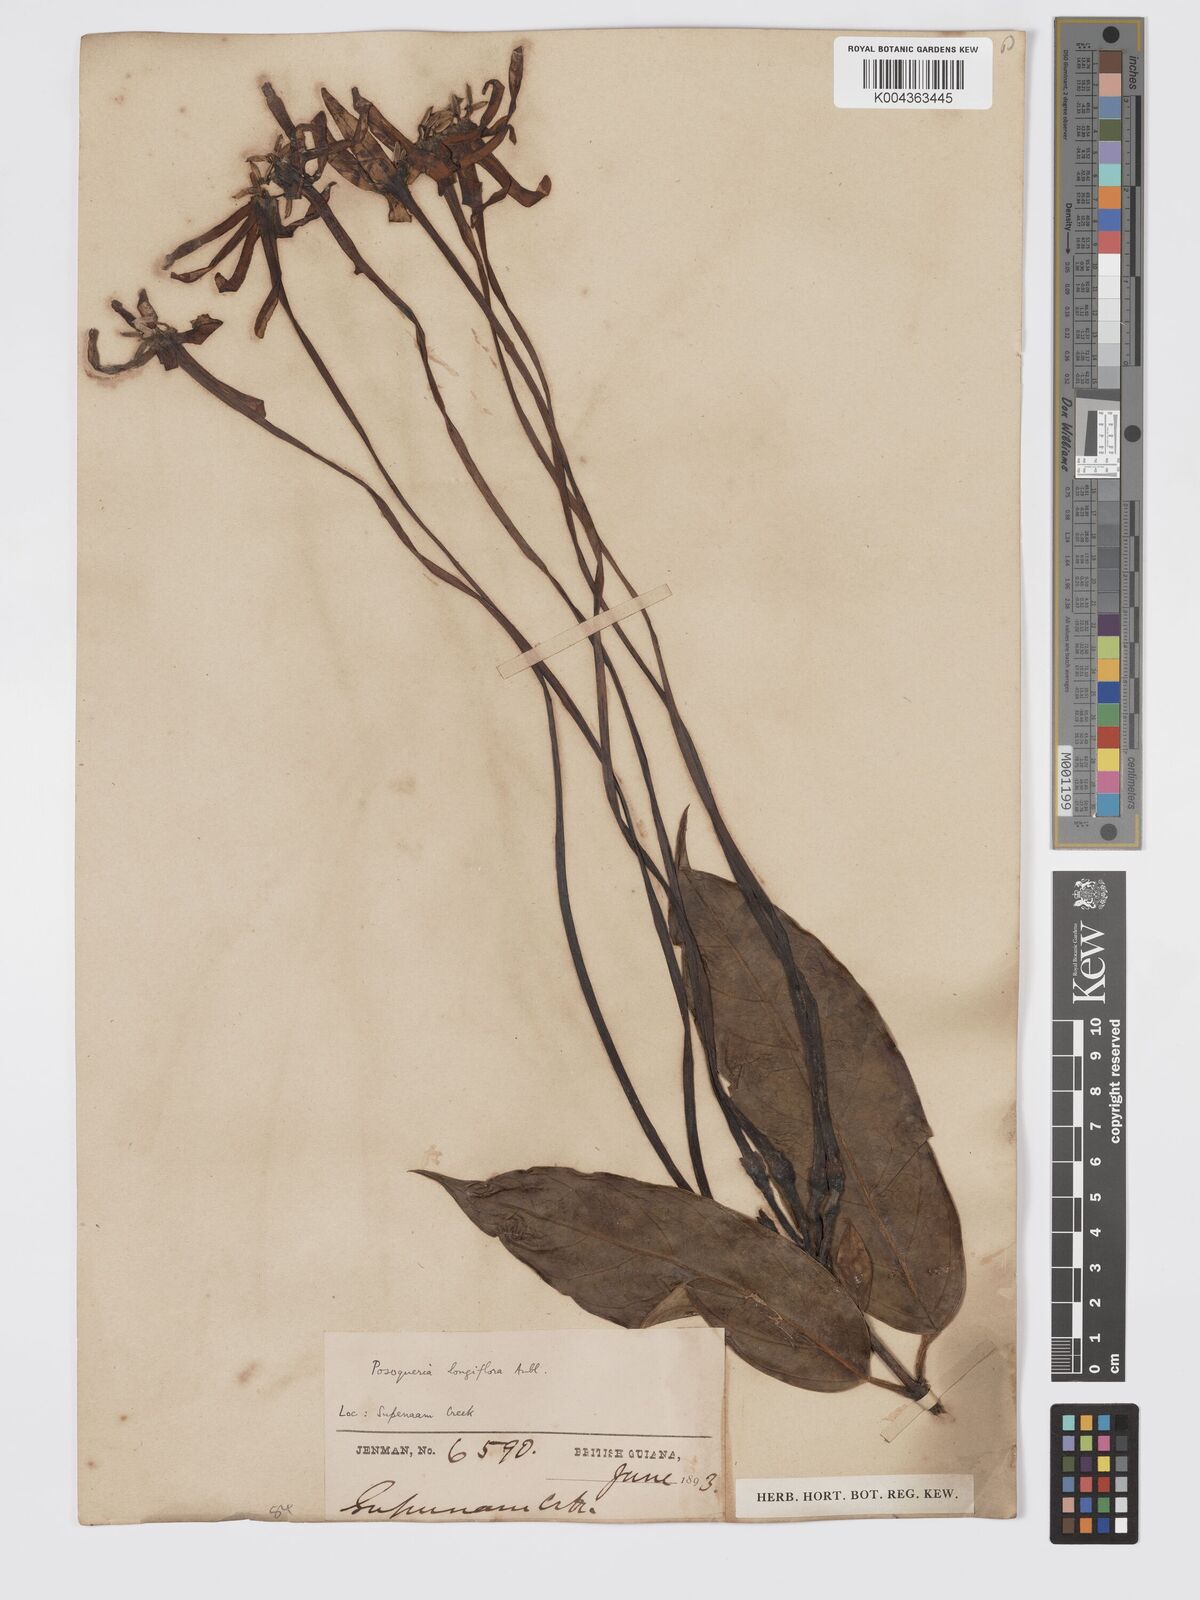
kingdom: Plantae
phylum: Tracheophyta
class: Magnoliopsida
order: Gentianales
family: Rubiaceae
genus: Posoqueria
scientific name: Posoqueria
